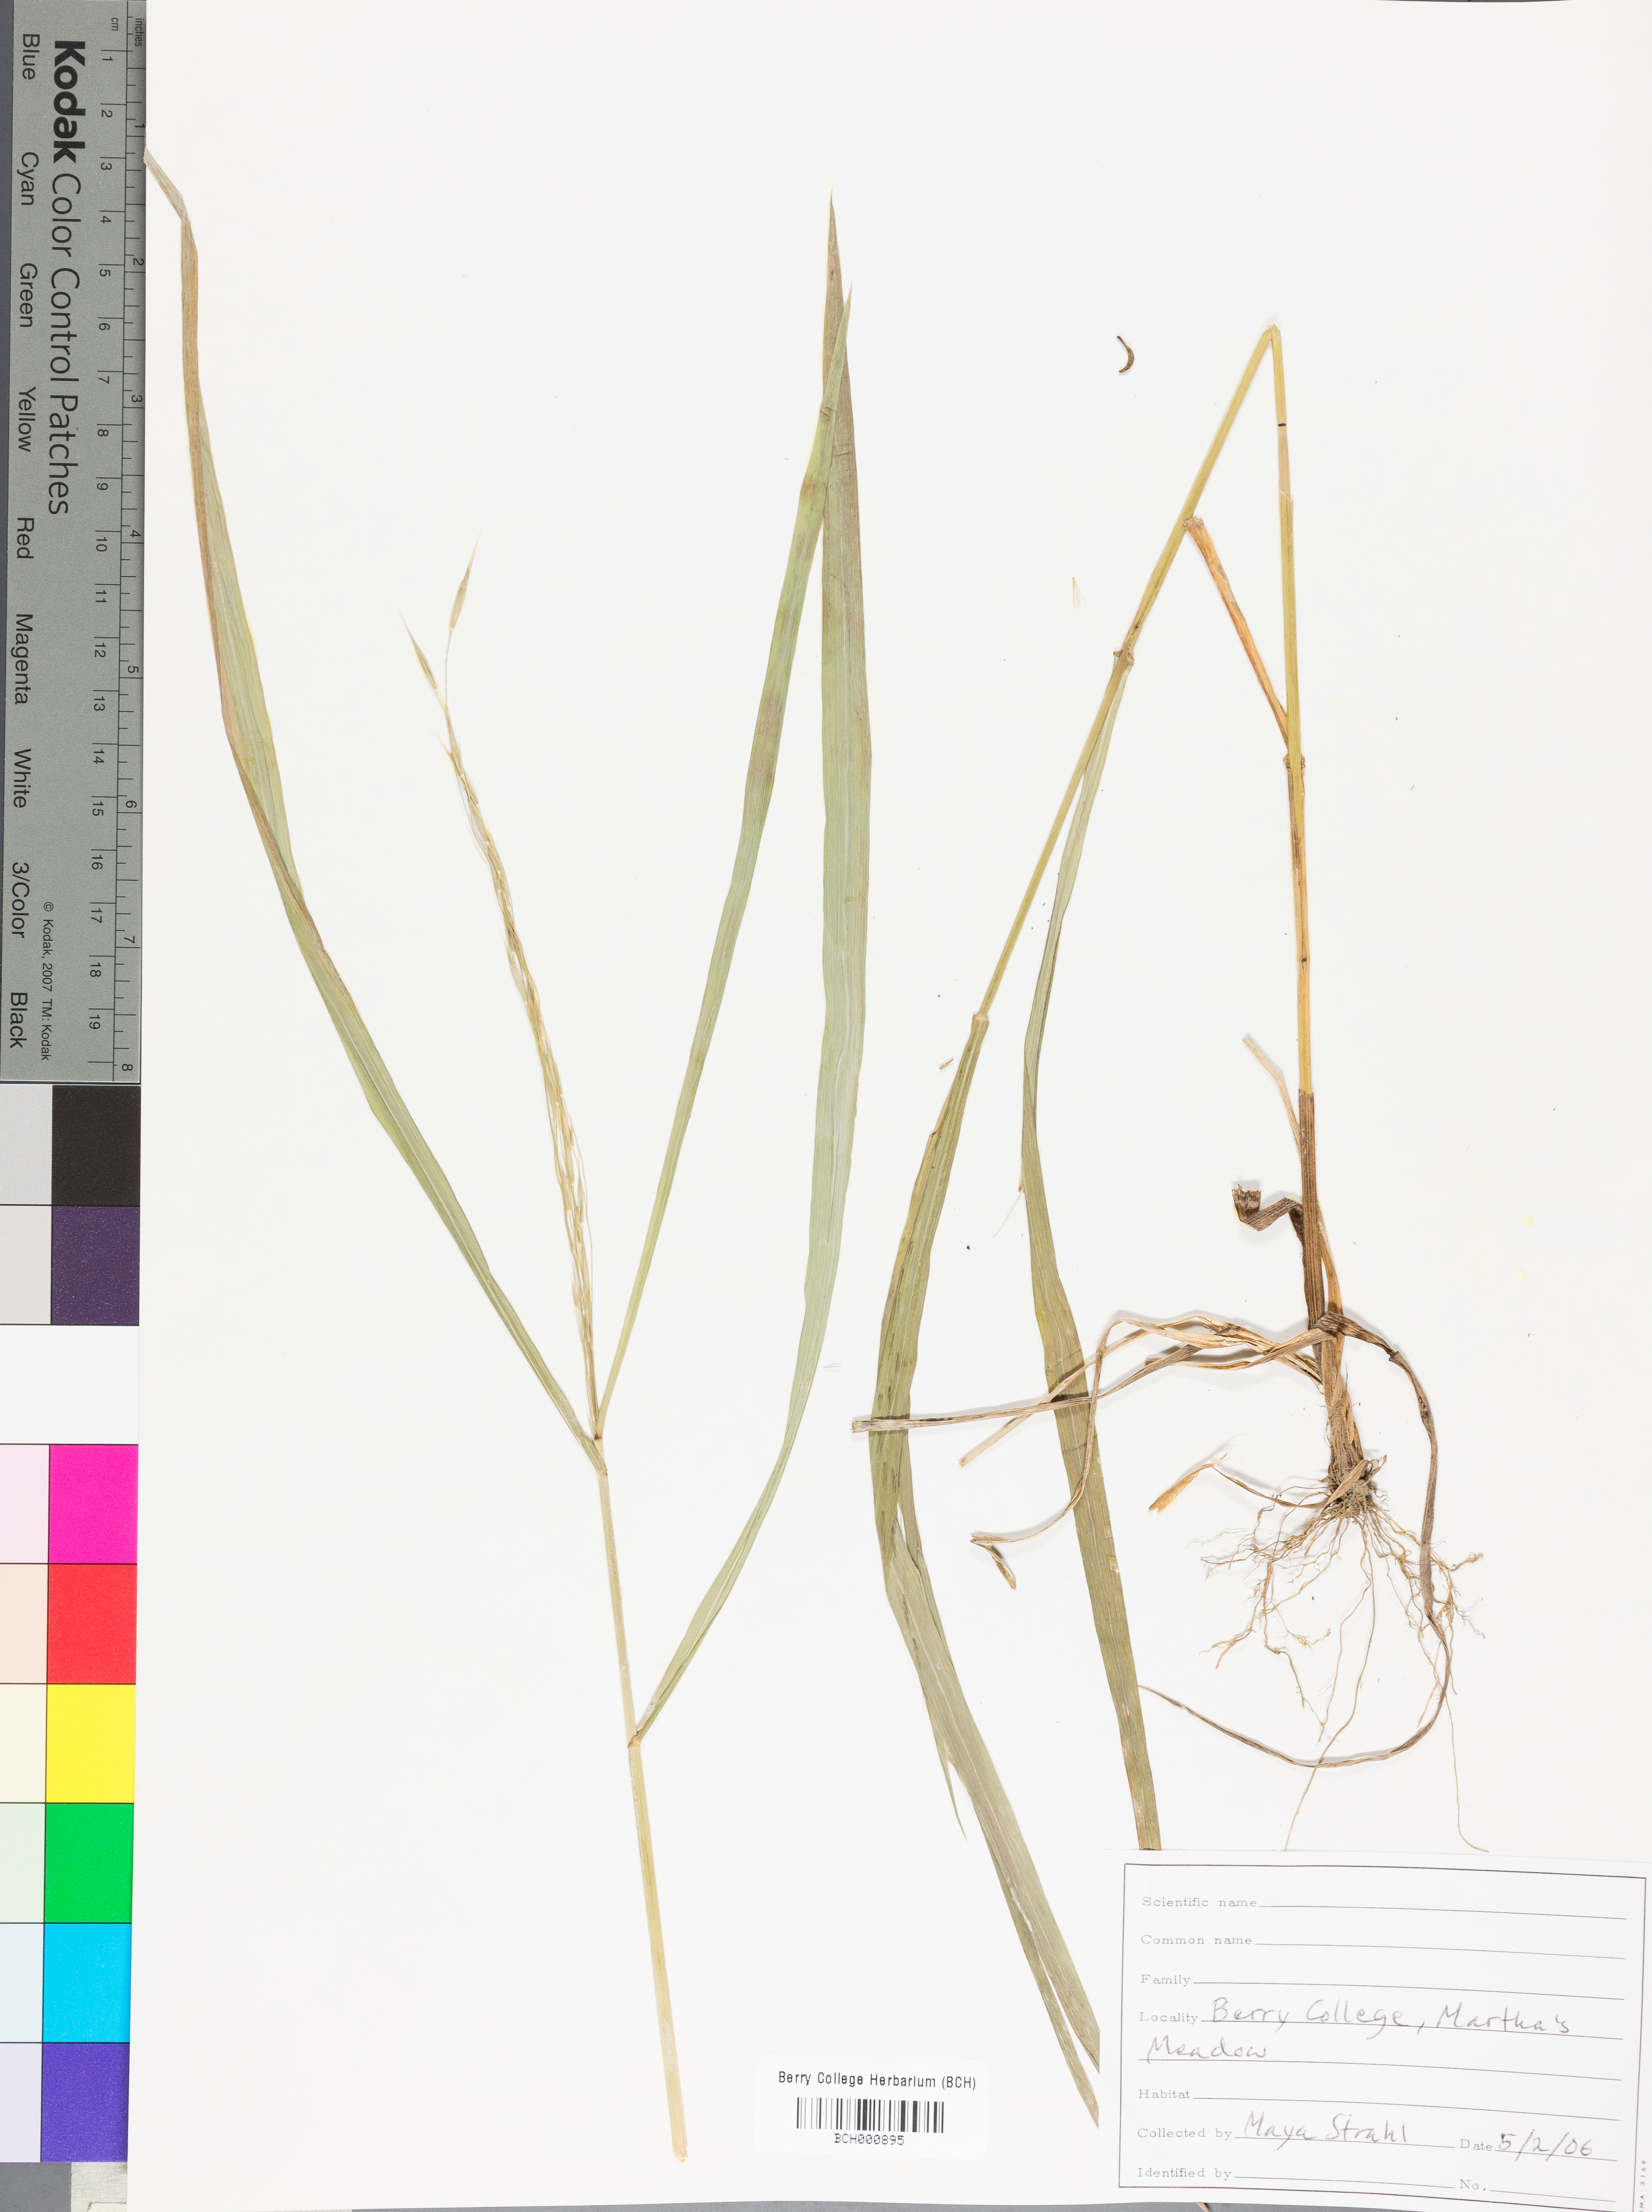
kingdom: Plantae
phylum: Tracheophyta
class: Magnoliopsida
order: Lamiales
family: Acanthaceae
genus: Adhatoda
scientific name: Adhatoda
